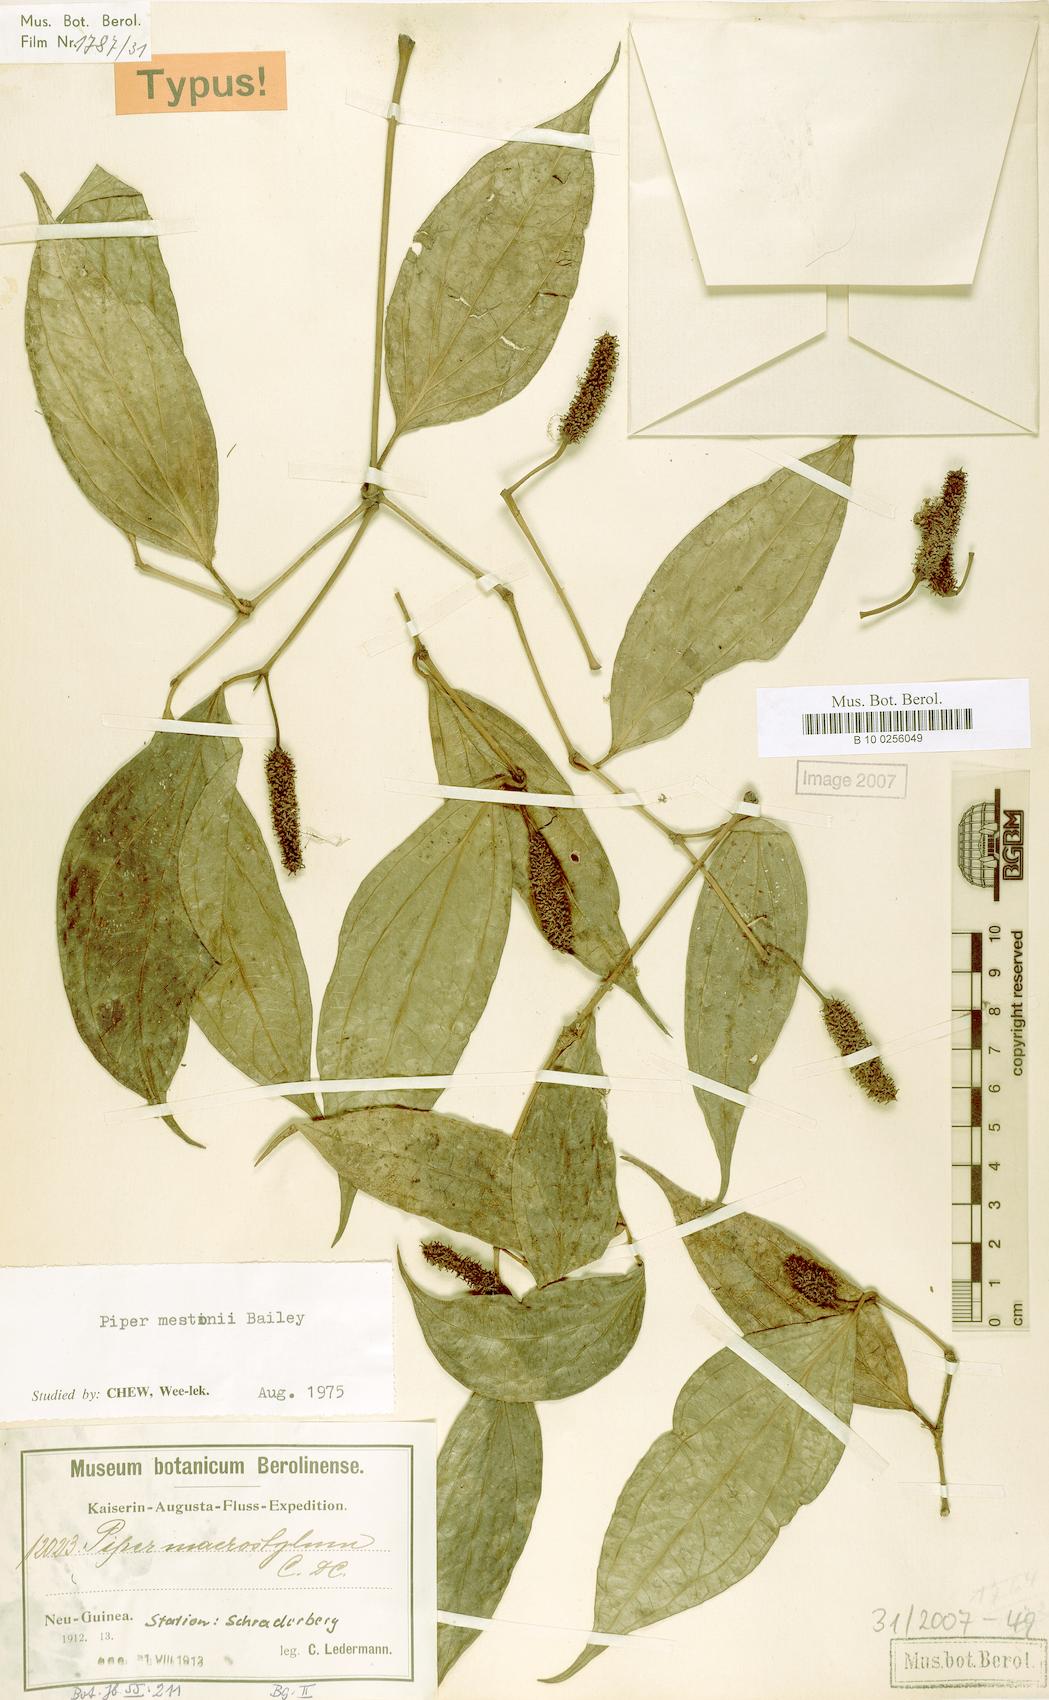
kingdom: Plantae
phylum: Tracheophyta
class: Magnoliopsida
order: Piperales
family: Piperaceae
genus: Piper
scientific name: Piper mestonii
